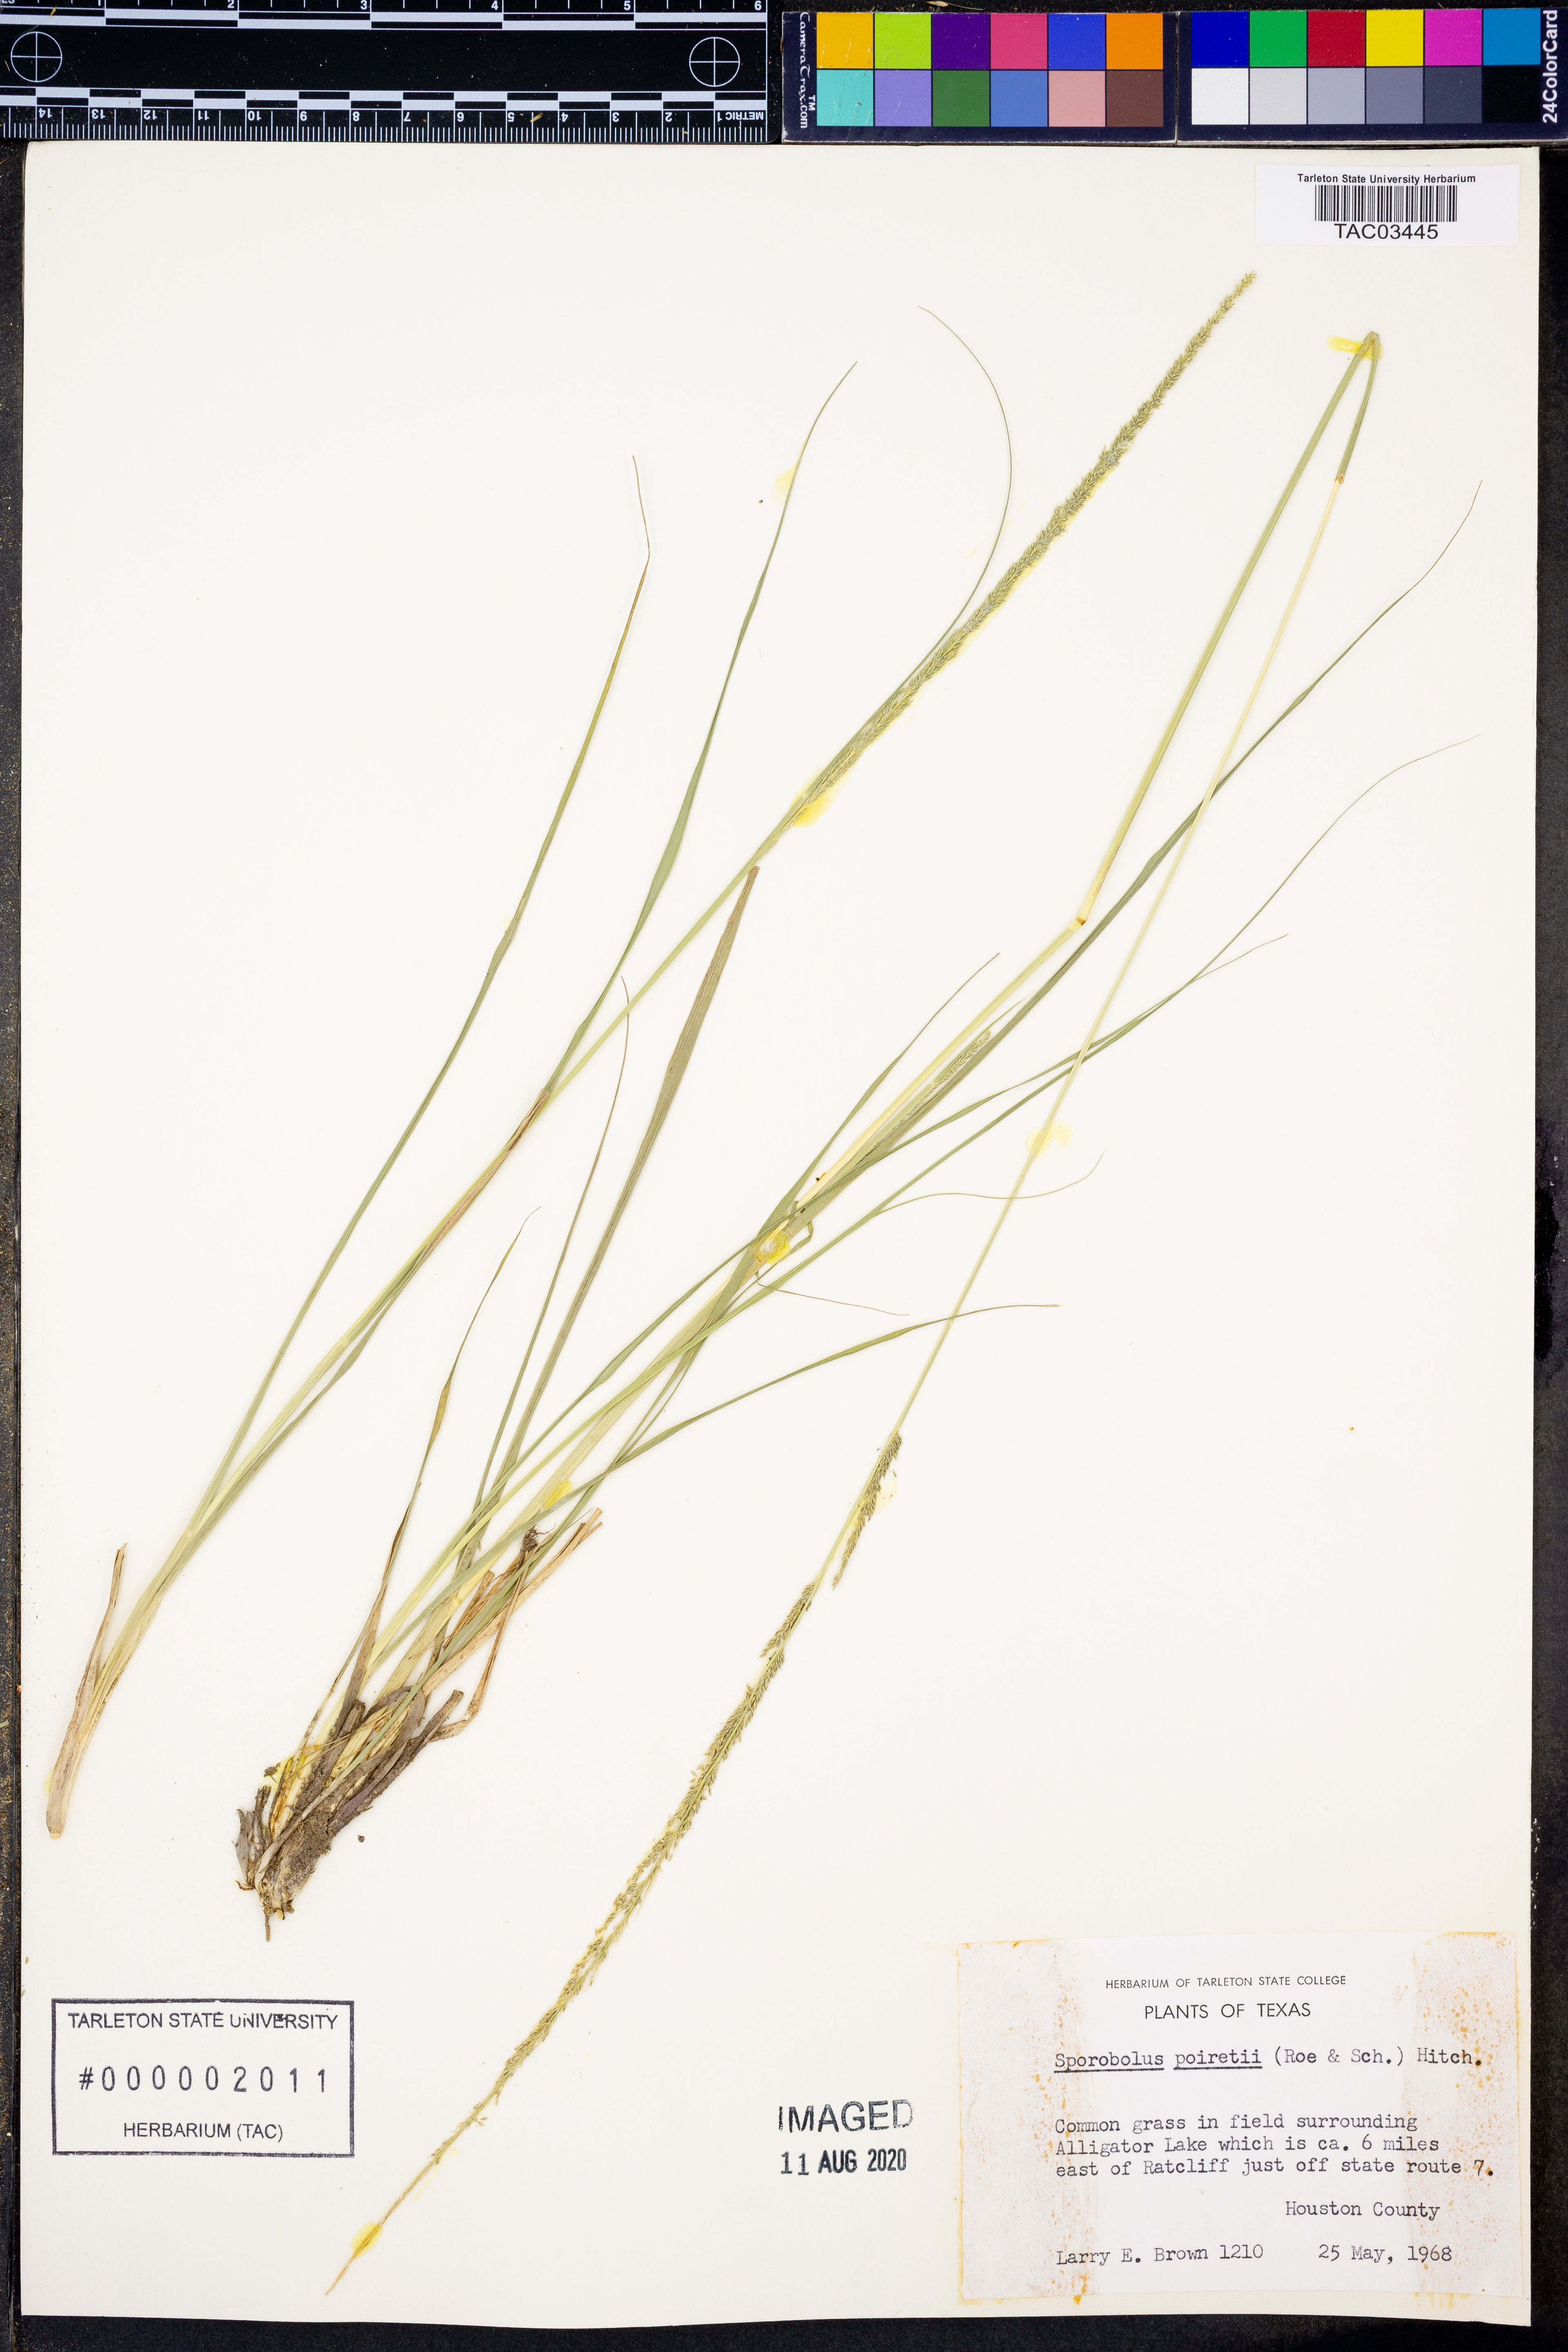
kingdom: Plantae
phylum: Tracheophyta
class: Liliopsida
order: Poales
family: Poaceae
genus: Sporobolus
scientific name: Sporobolus junceus
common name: Lizard grass
